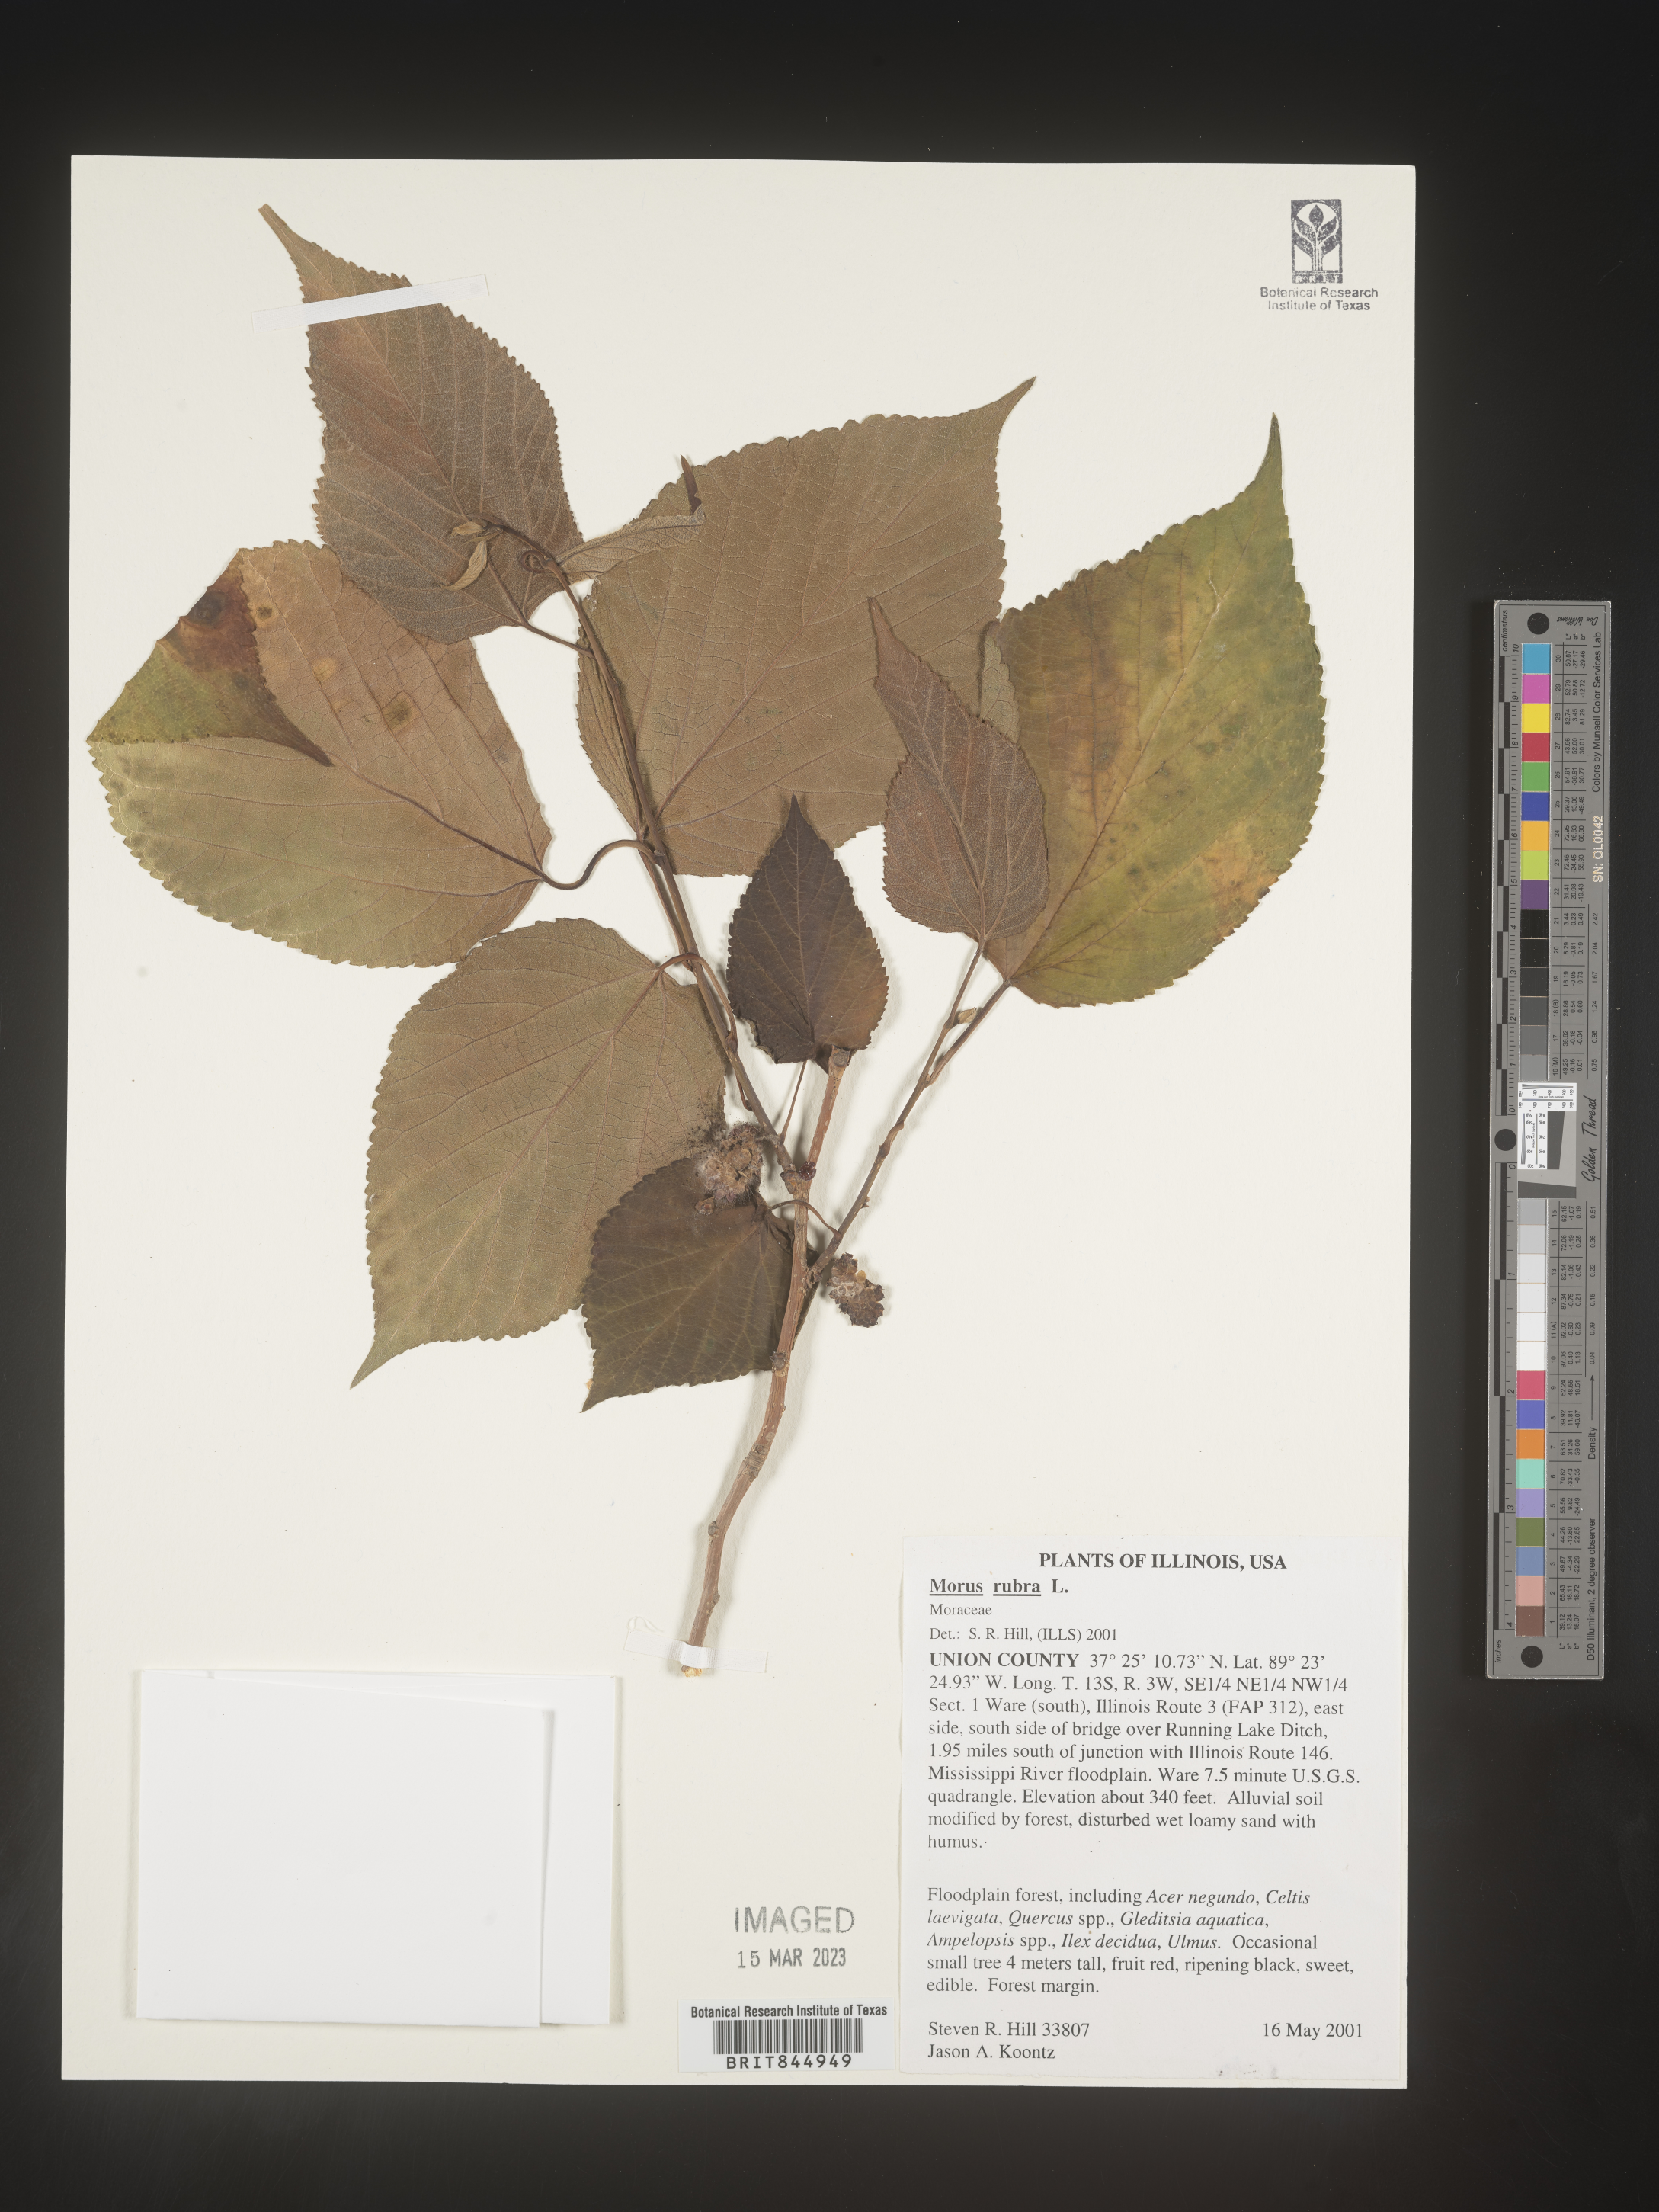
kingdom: Plantae
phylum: Tracheophyta
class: Magnoliopsida
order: Rosales
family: Moraceae
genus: Morus
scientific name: Morus rubra
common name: Red mulberry
